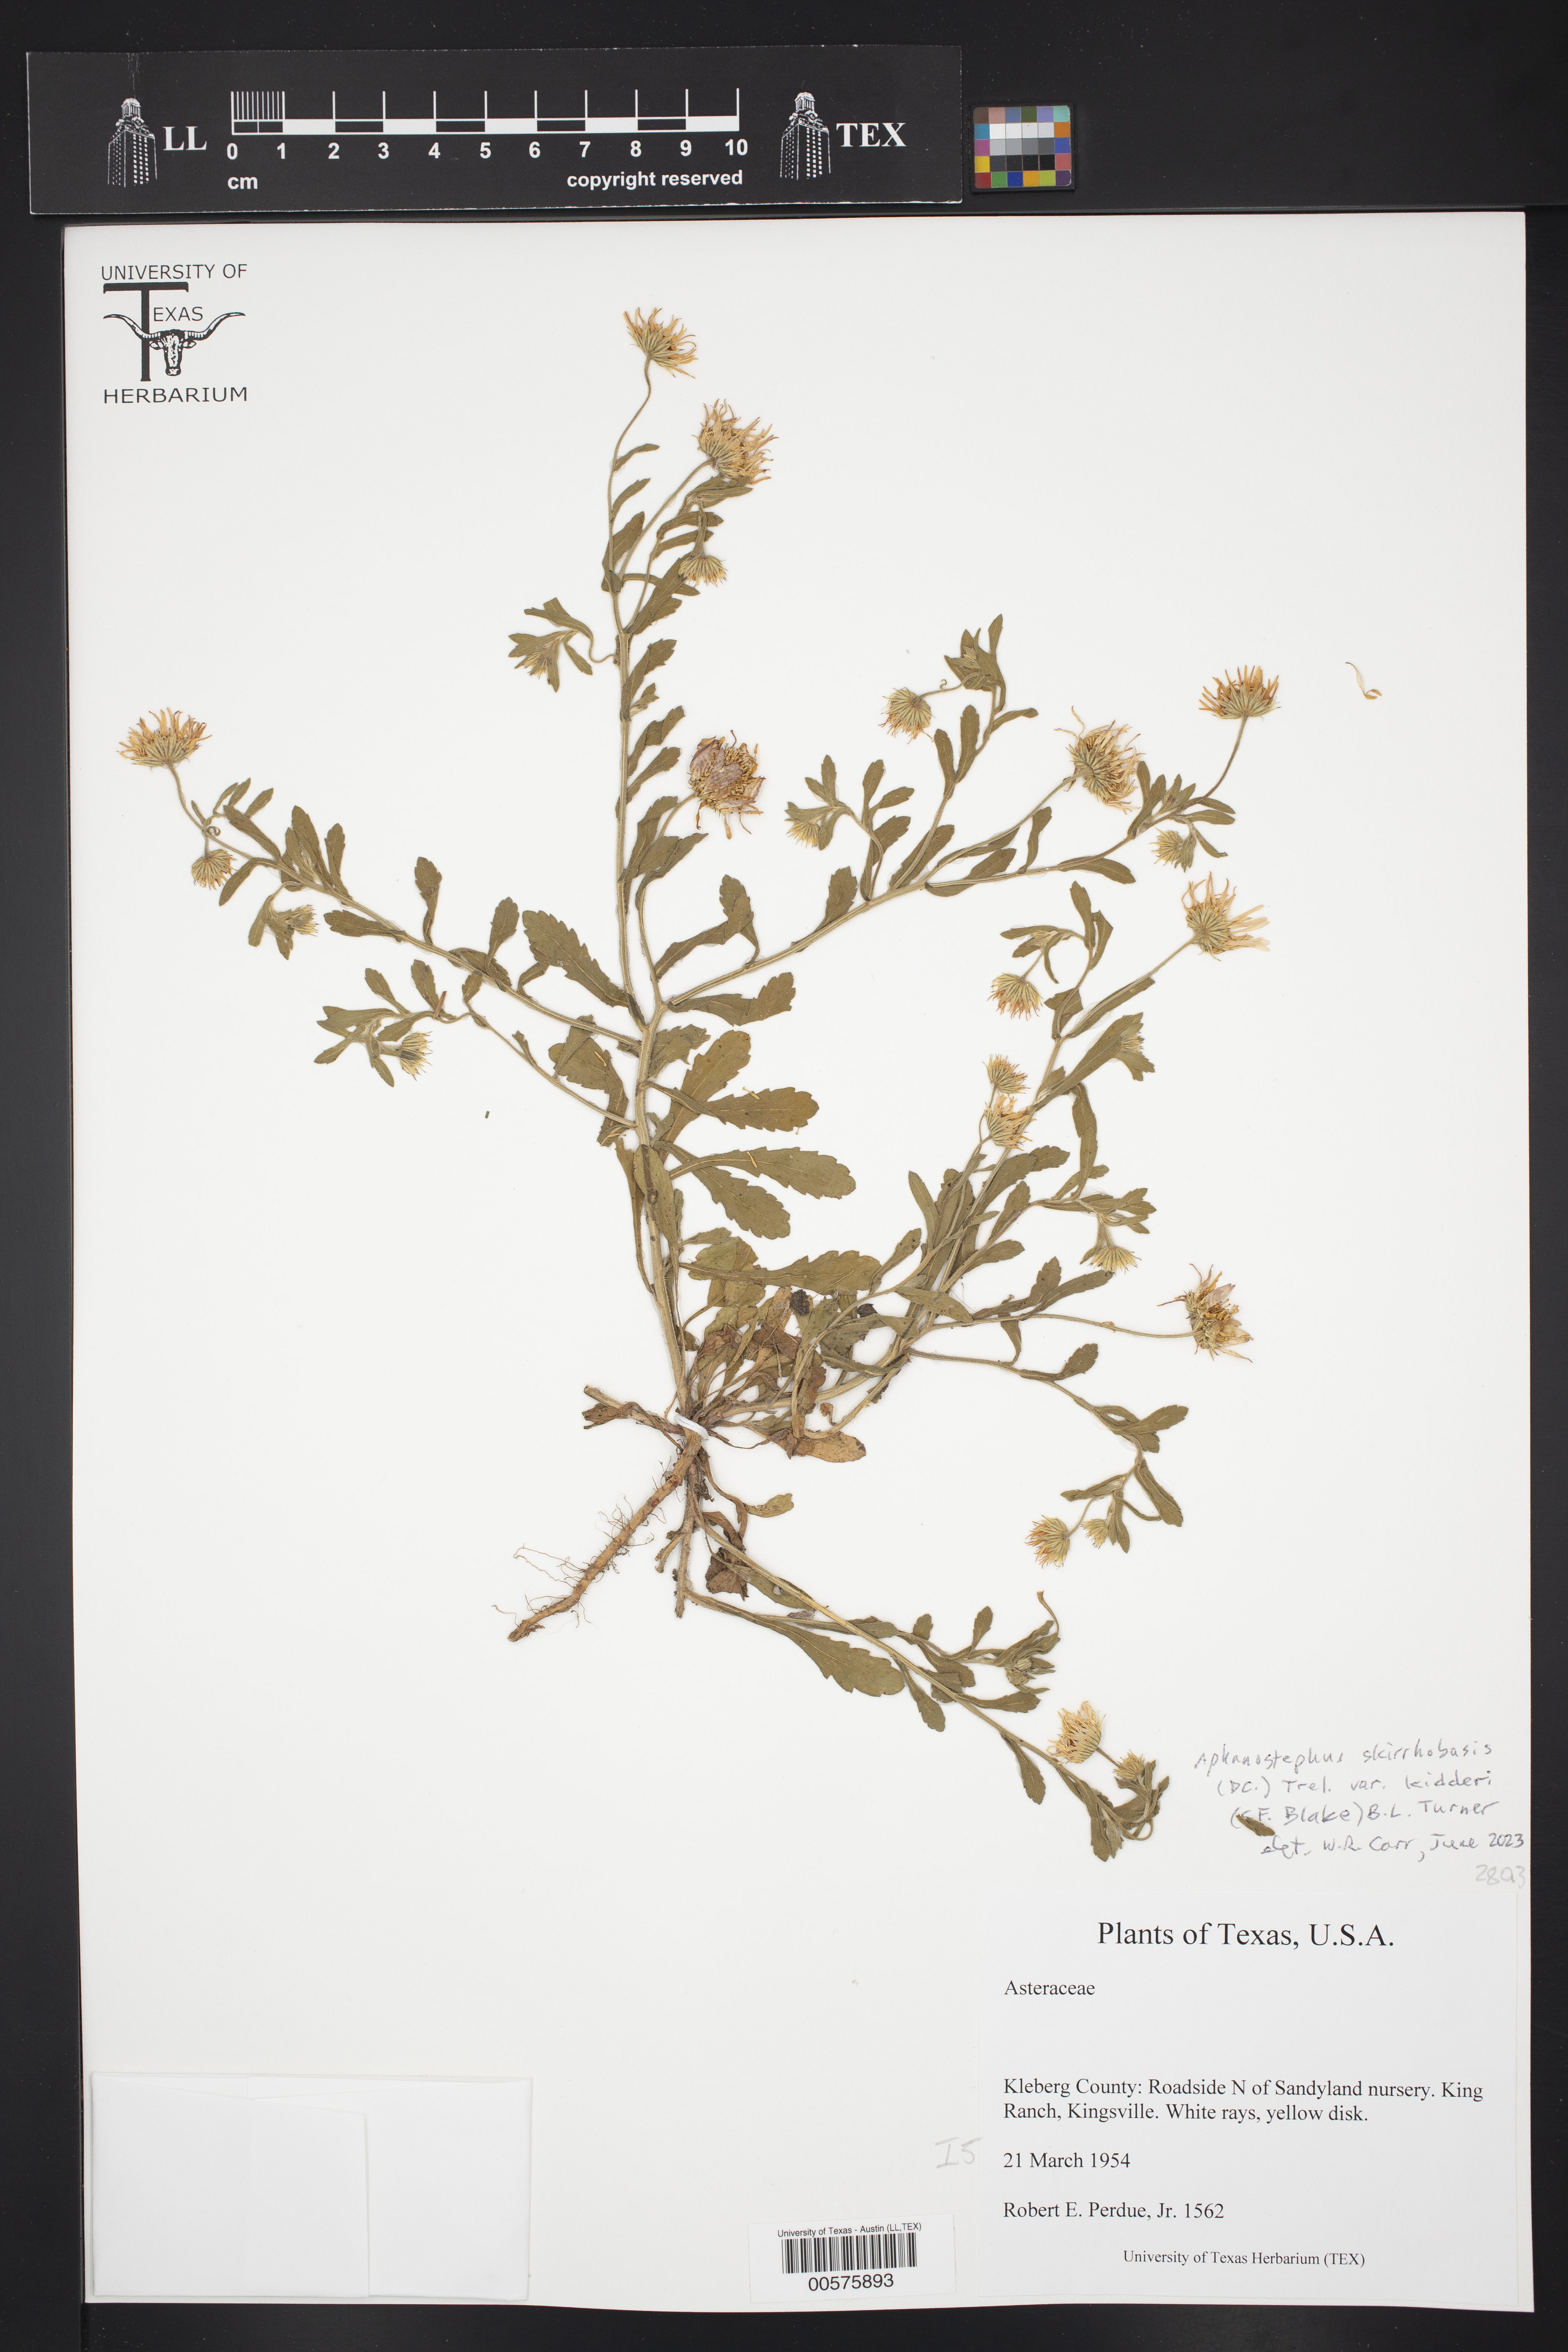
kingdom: Plantae
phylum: Tracheophyta
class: Magnoliopsida
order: Asterales
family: Asteraceae
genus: Aphanostephus
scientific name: Aphanostephus skirrhobasis
